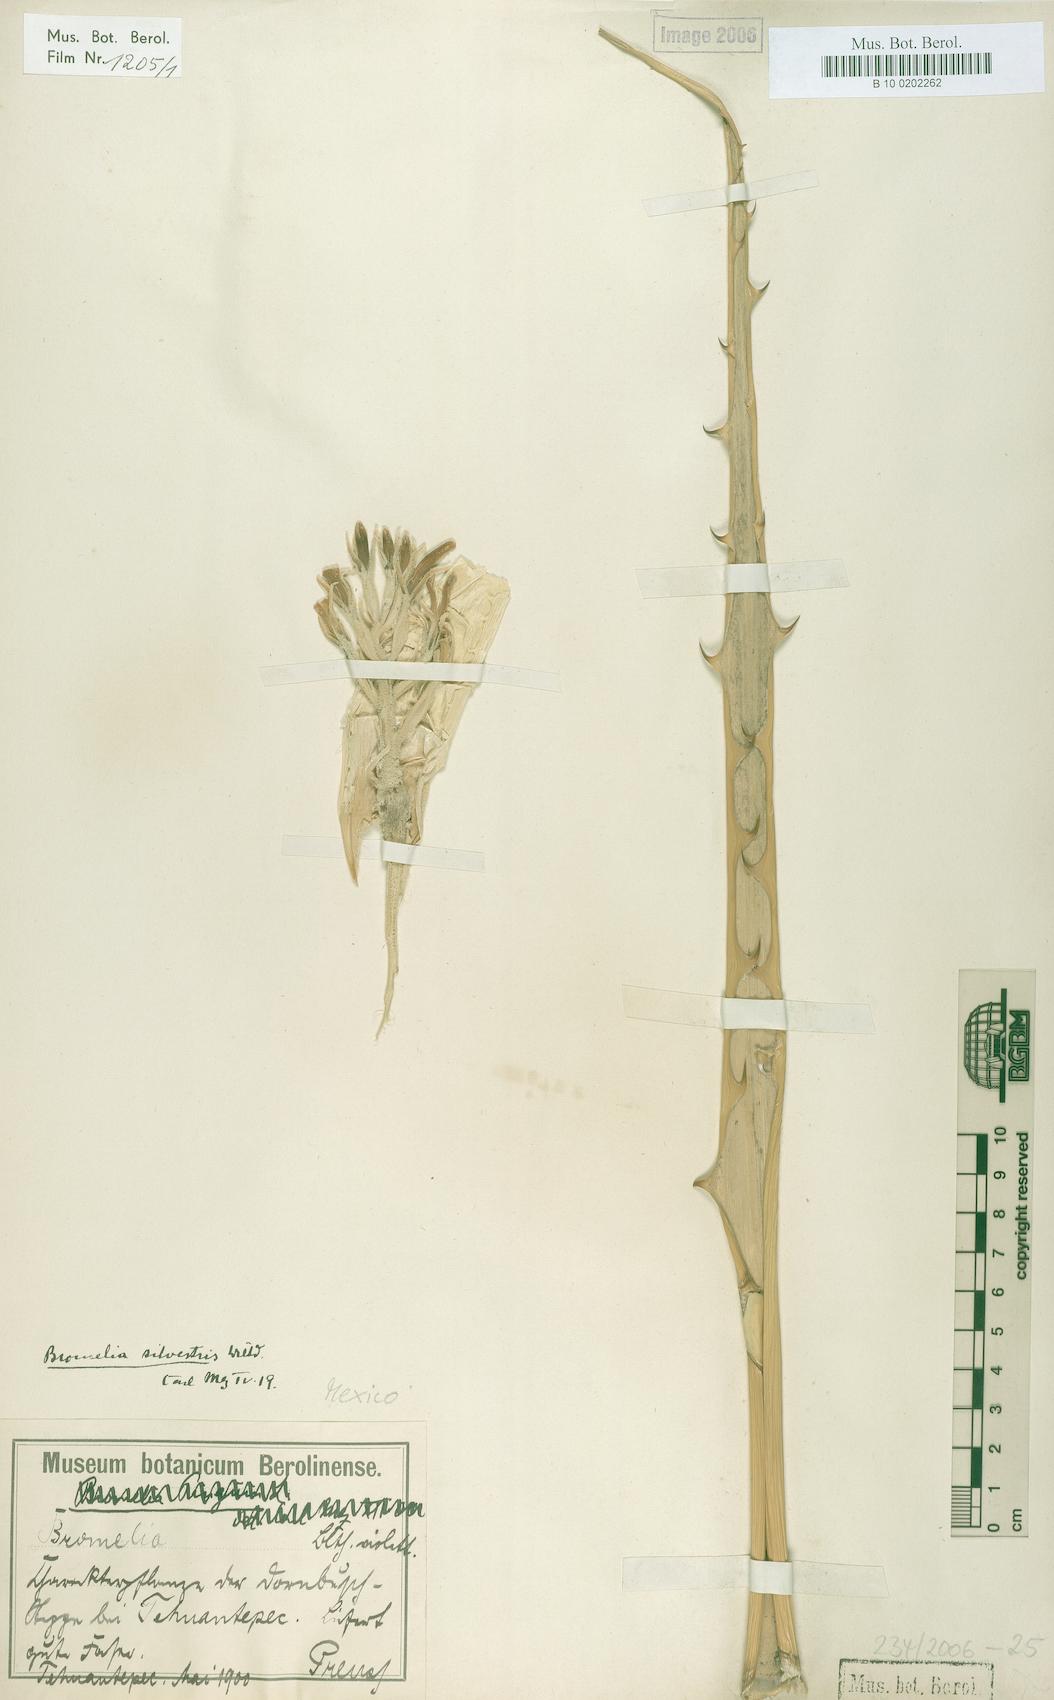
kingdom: Plantae
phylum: Tracheophyta
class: Liliopsida
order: Poales
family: Bromeliaceae
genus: Bromelia
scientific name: Bromelia pinguin
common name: Pinguin
